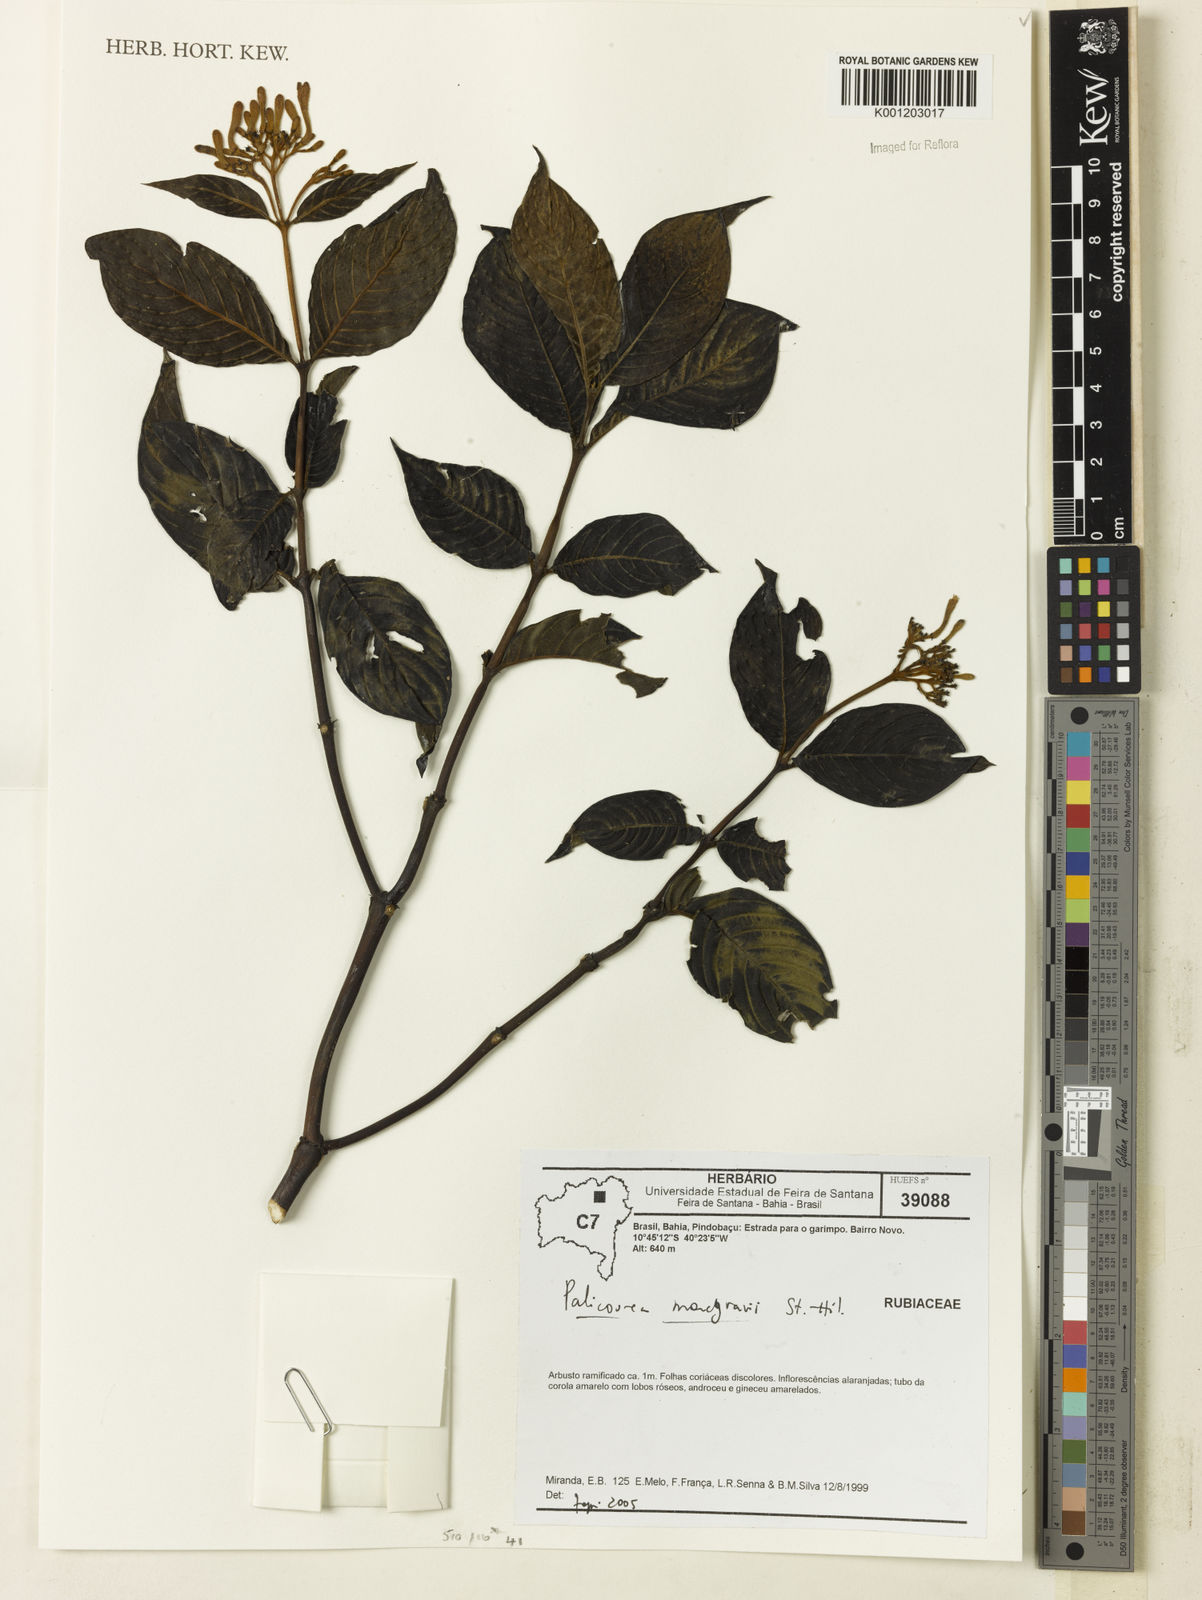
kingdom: Plantae
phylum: Tracheophyta
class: Magnoliopsida
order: Gentianales
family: Rubiaceae
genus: Palicourea
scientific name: Palicourea marcgravii
